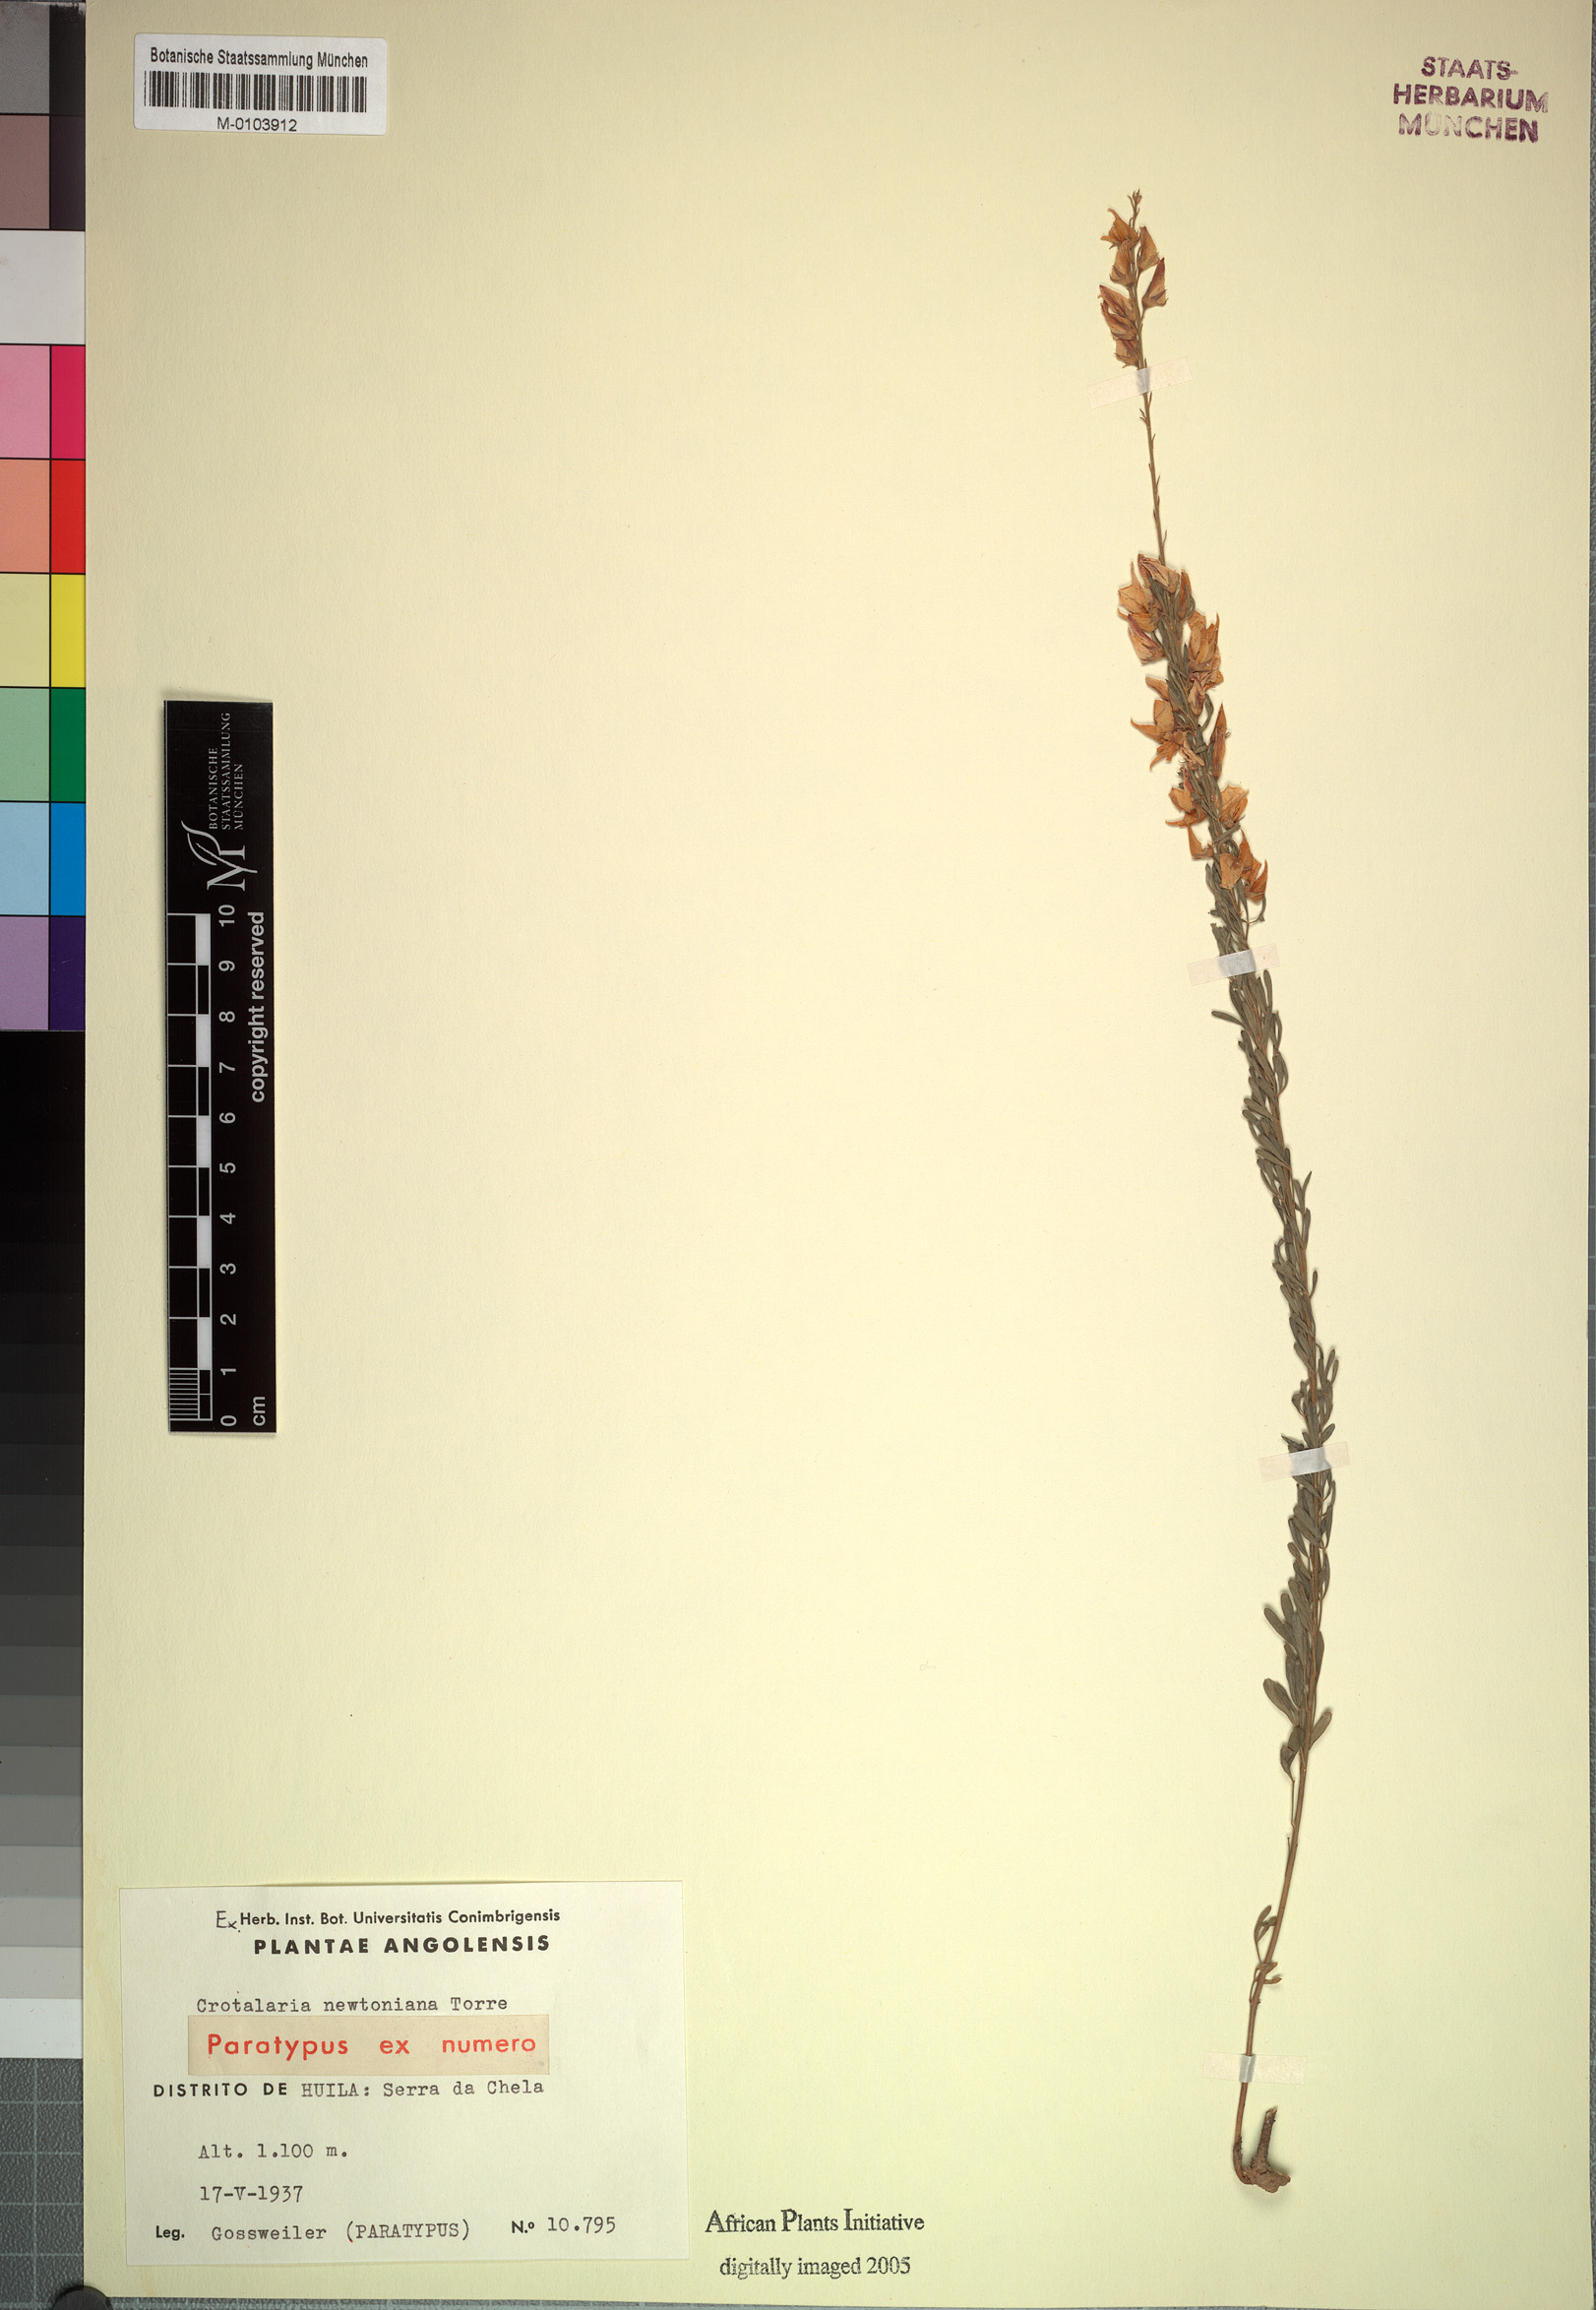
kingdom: Plantae
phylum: Tracheophyta
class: Magnoliopsida
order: Fabales
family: Fabaceae
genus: Crotalaria
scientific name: Crotalaria newtoniana
